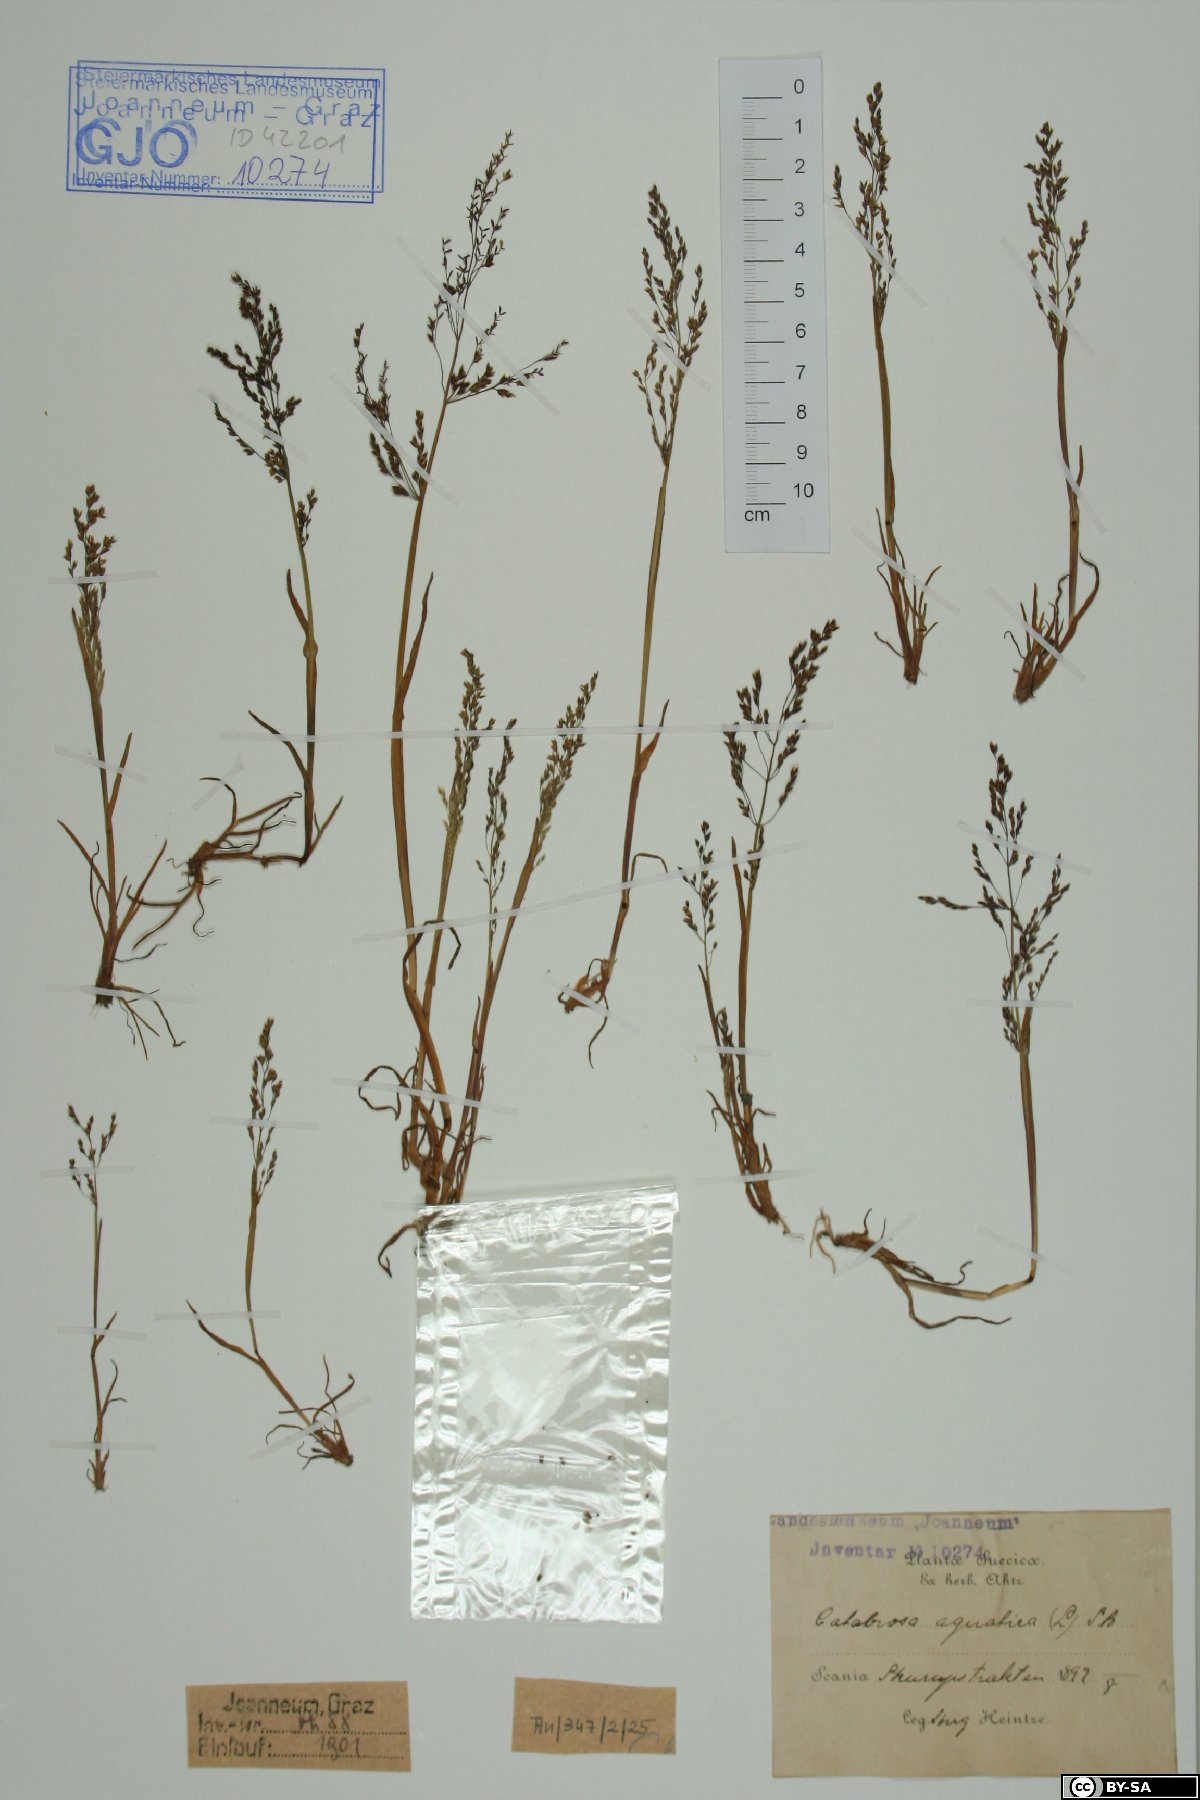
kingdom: Plantae
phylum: Tracheophyta
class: Liliopsida
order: Poales
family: Poaceae
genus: Catabrosa
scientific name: Catabrosa aquatica
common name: Whorl-grass
